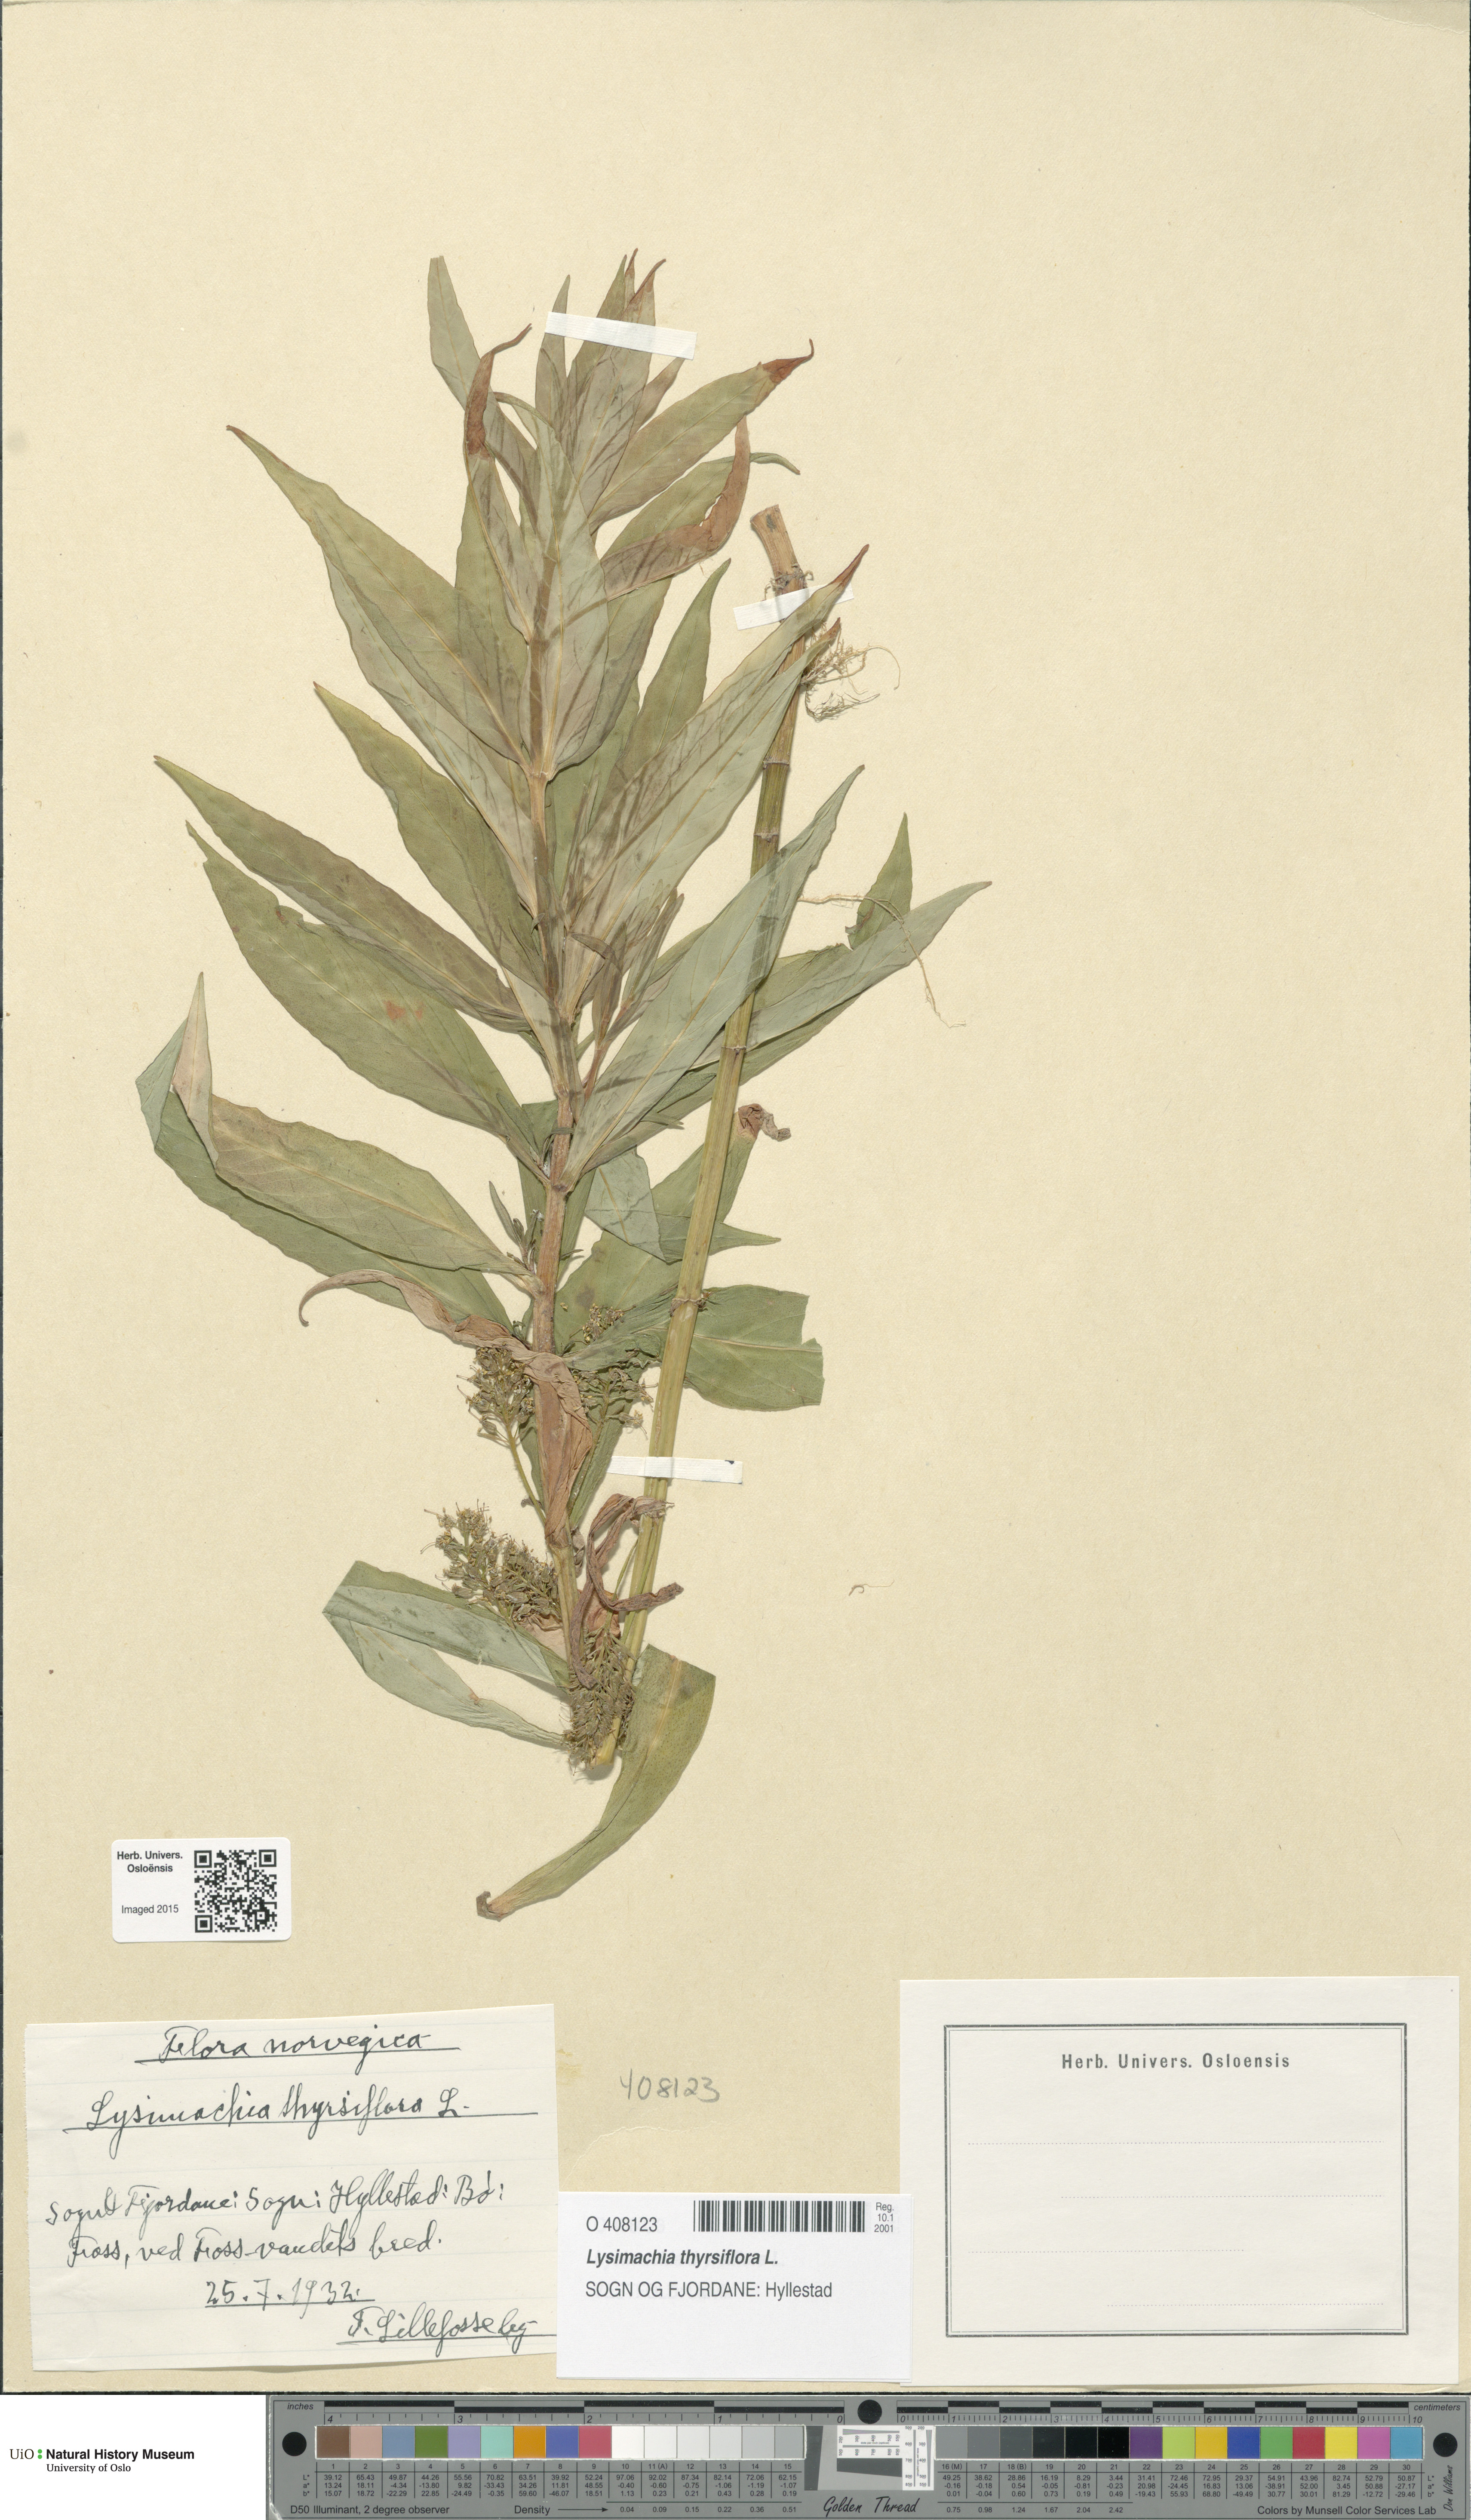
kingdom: Plantae
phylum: Tracheophyta
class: Magnoliopsida
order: Ericales
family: Primulaceae
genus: Lysimachia
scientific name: Lysimachia thyrsiflora
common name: Tufted loosestrife
